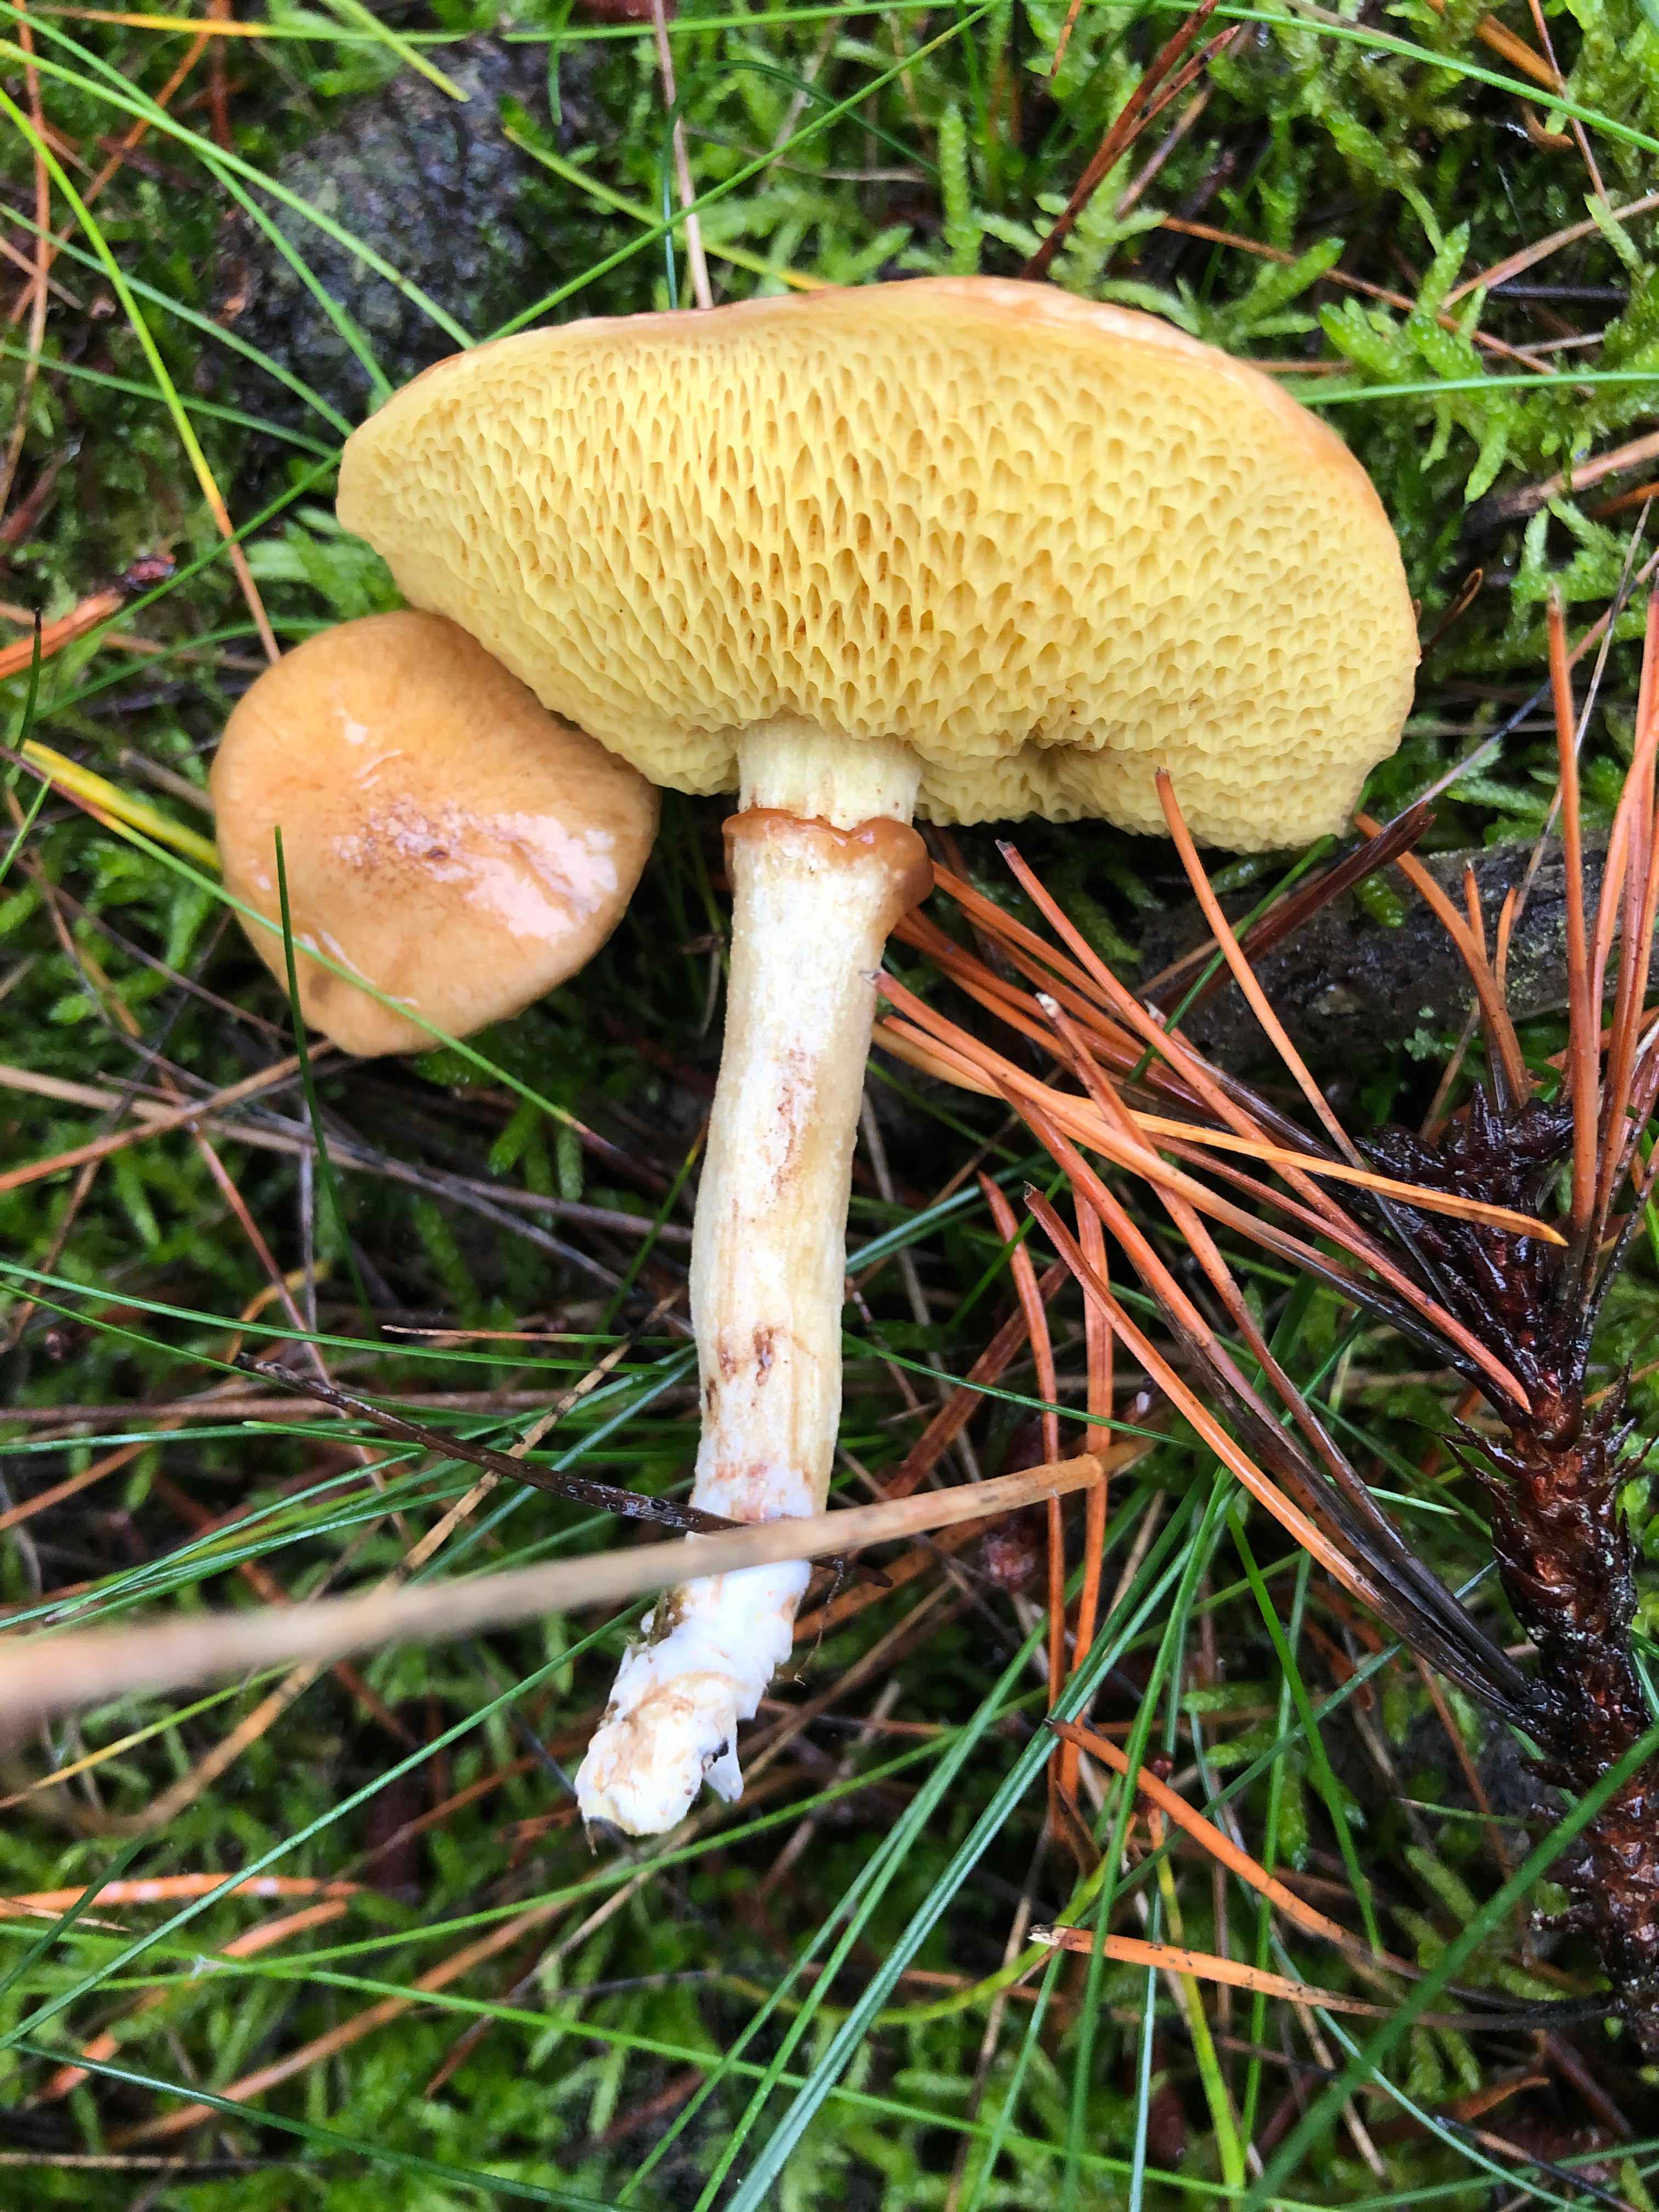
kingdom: Fungi
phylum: Basidiomycota
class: Agaricomycetes
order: Boletales
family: Suillaceae
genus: Suillus
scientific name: Suillus flavidus
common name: mose-slimrørhat
